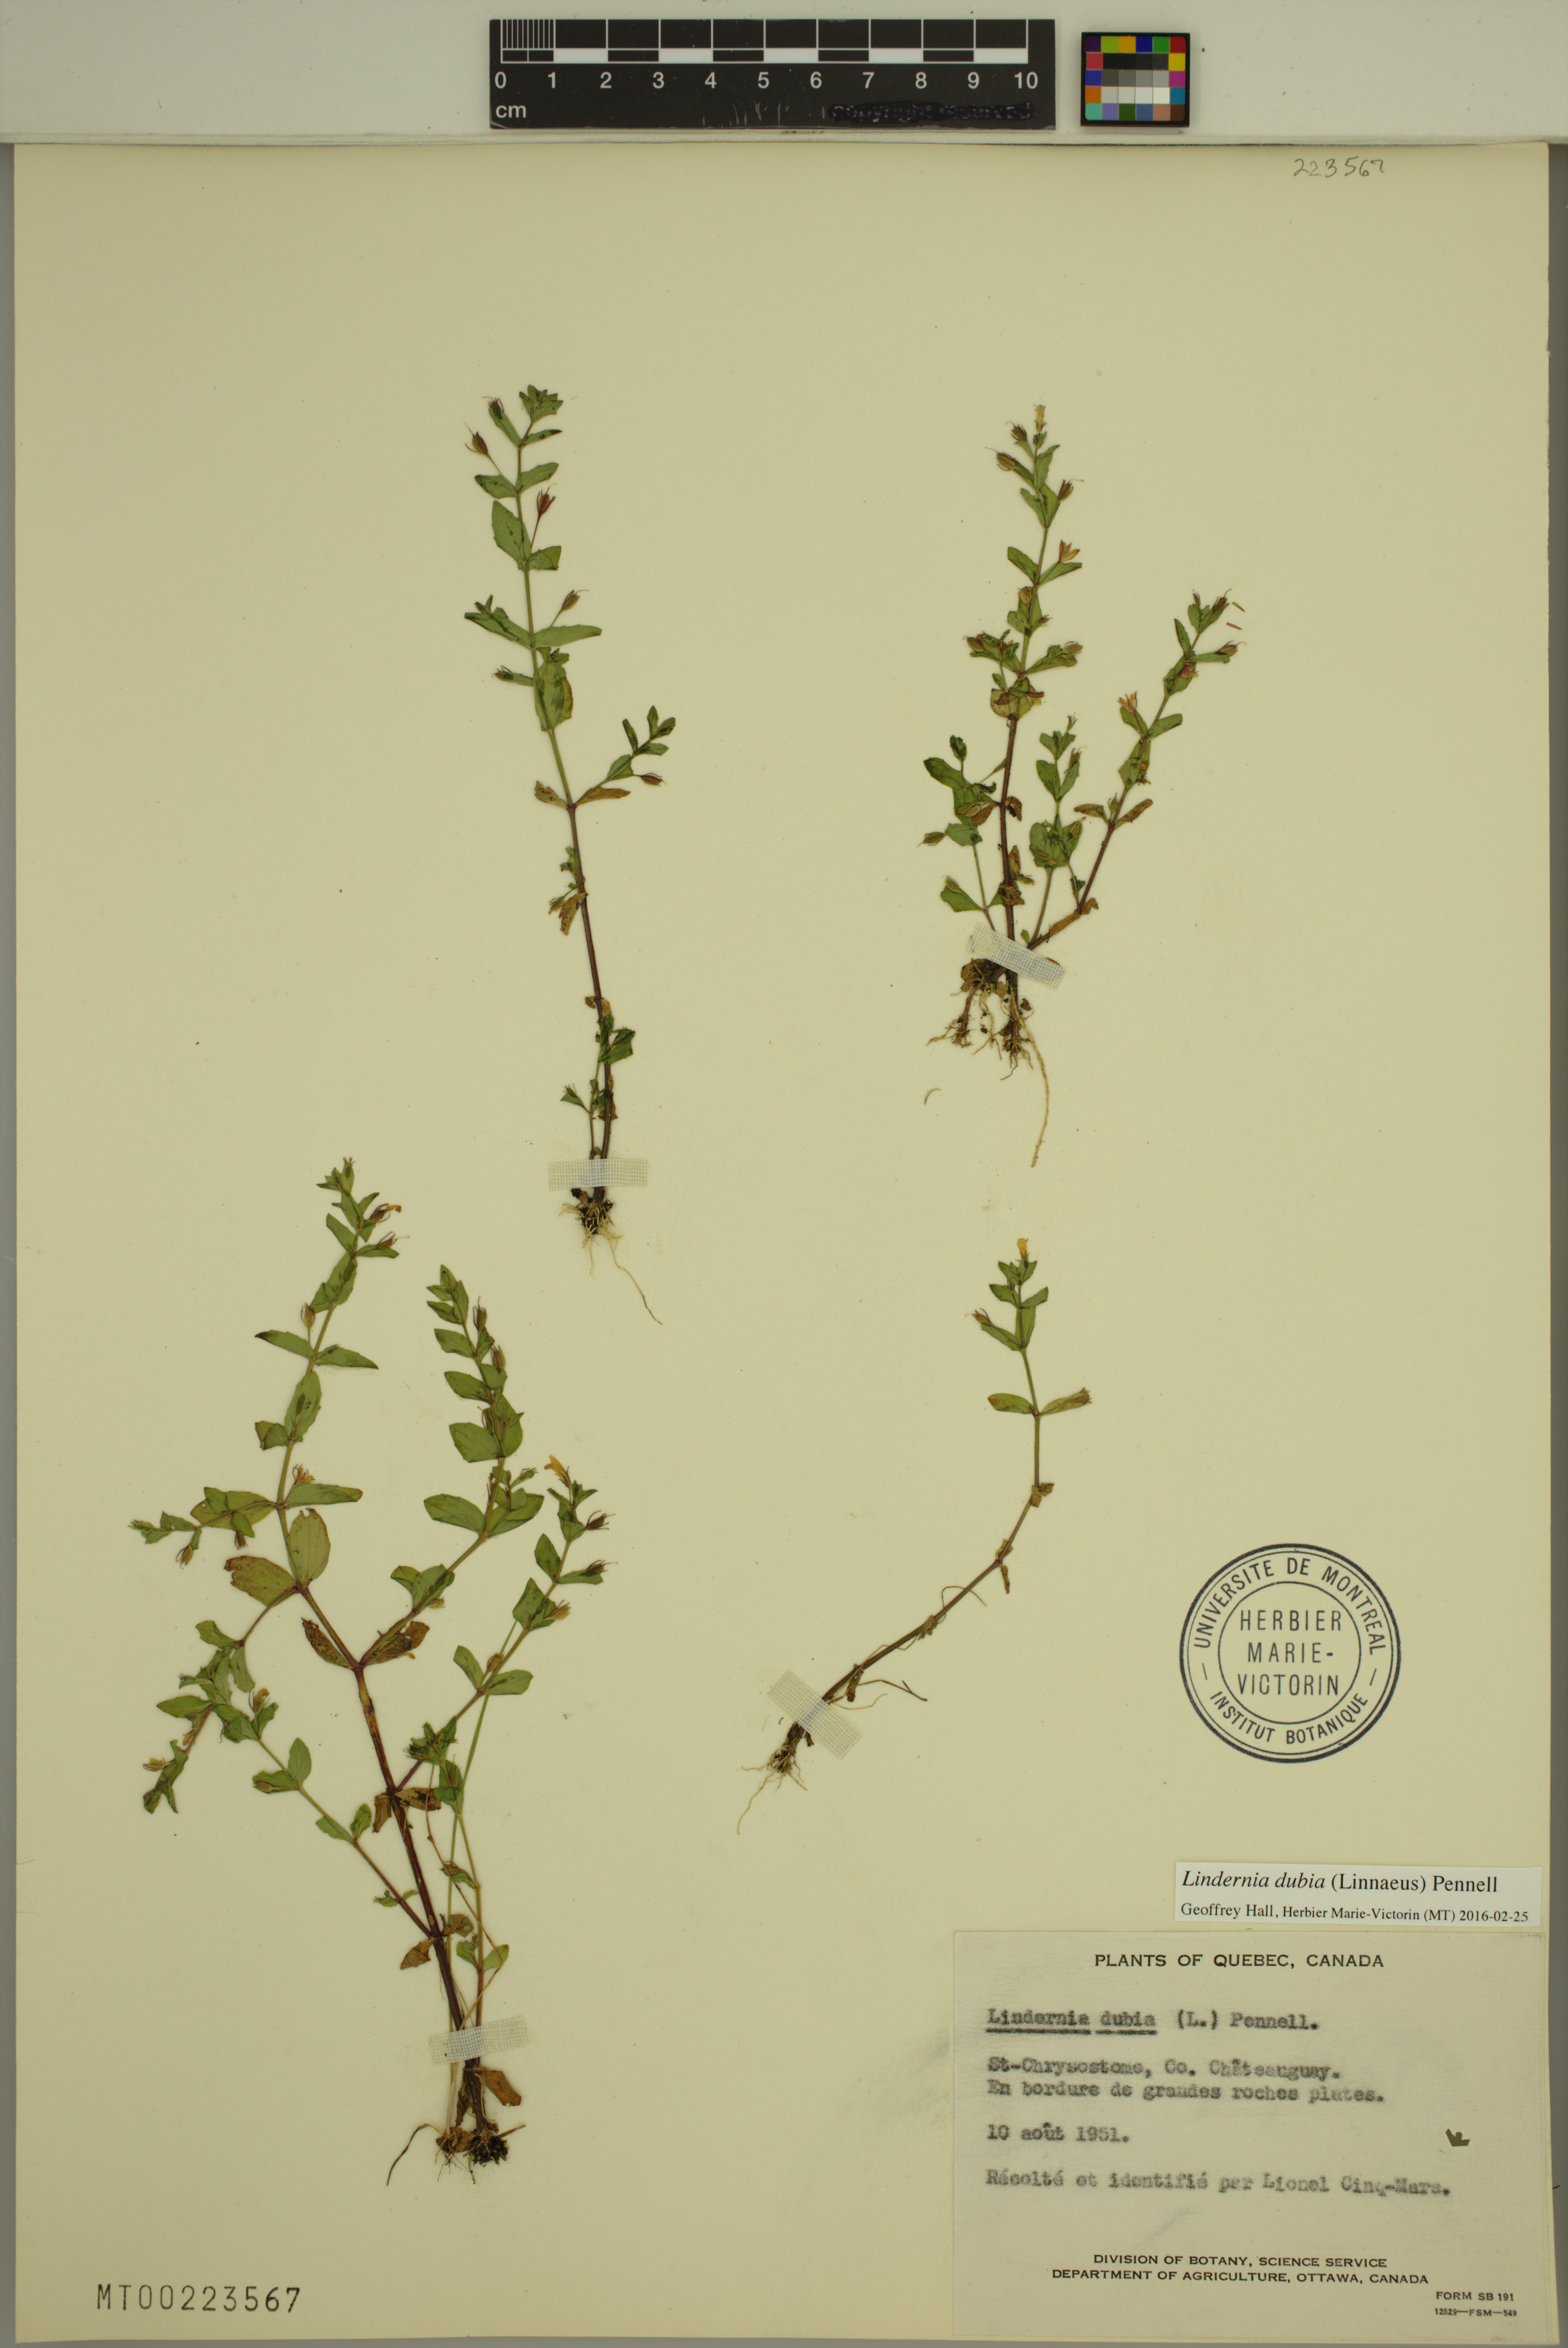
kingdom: Plantae
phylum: Tracheophyta
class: Magnoliopsida
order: Lamiales
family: Linderniaceae
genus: Lindernia
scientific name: Lindernia dubia
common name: Annual false pimpernel
